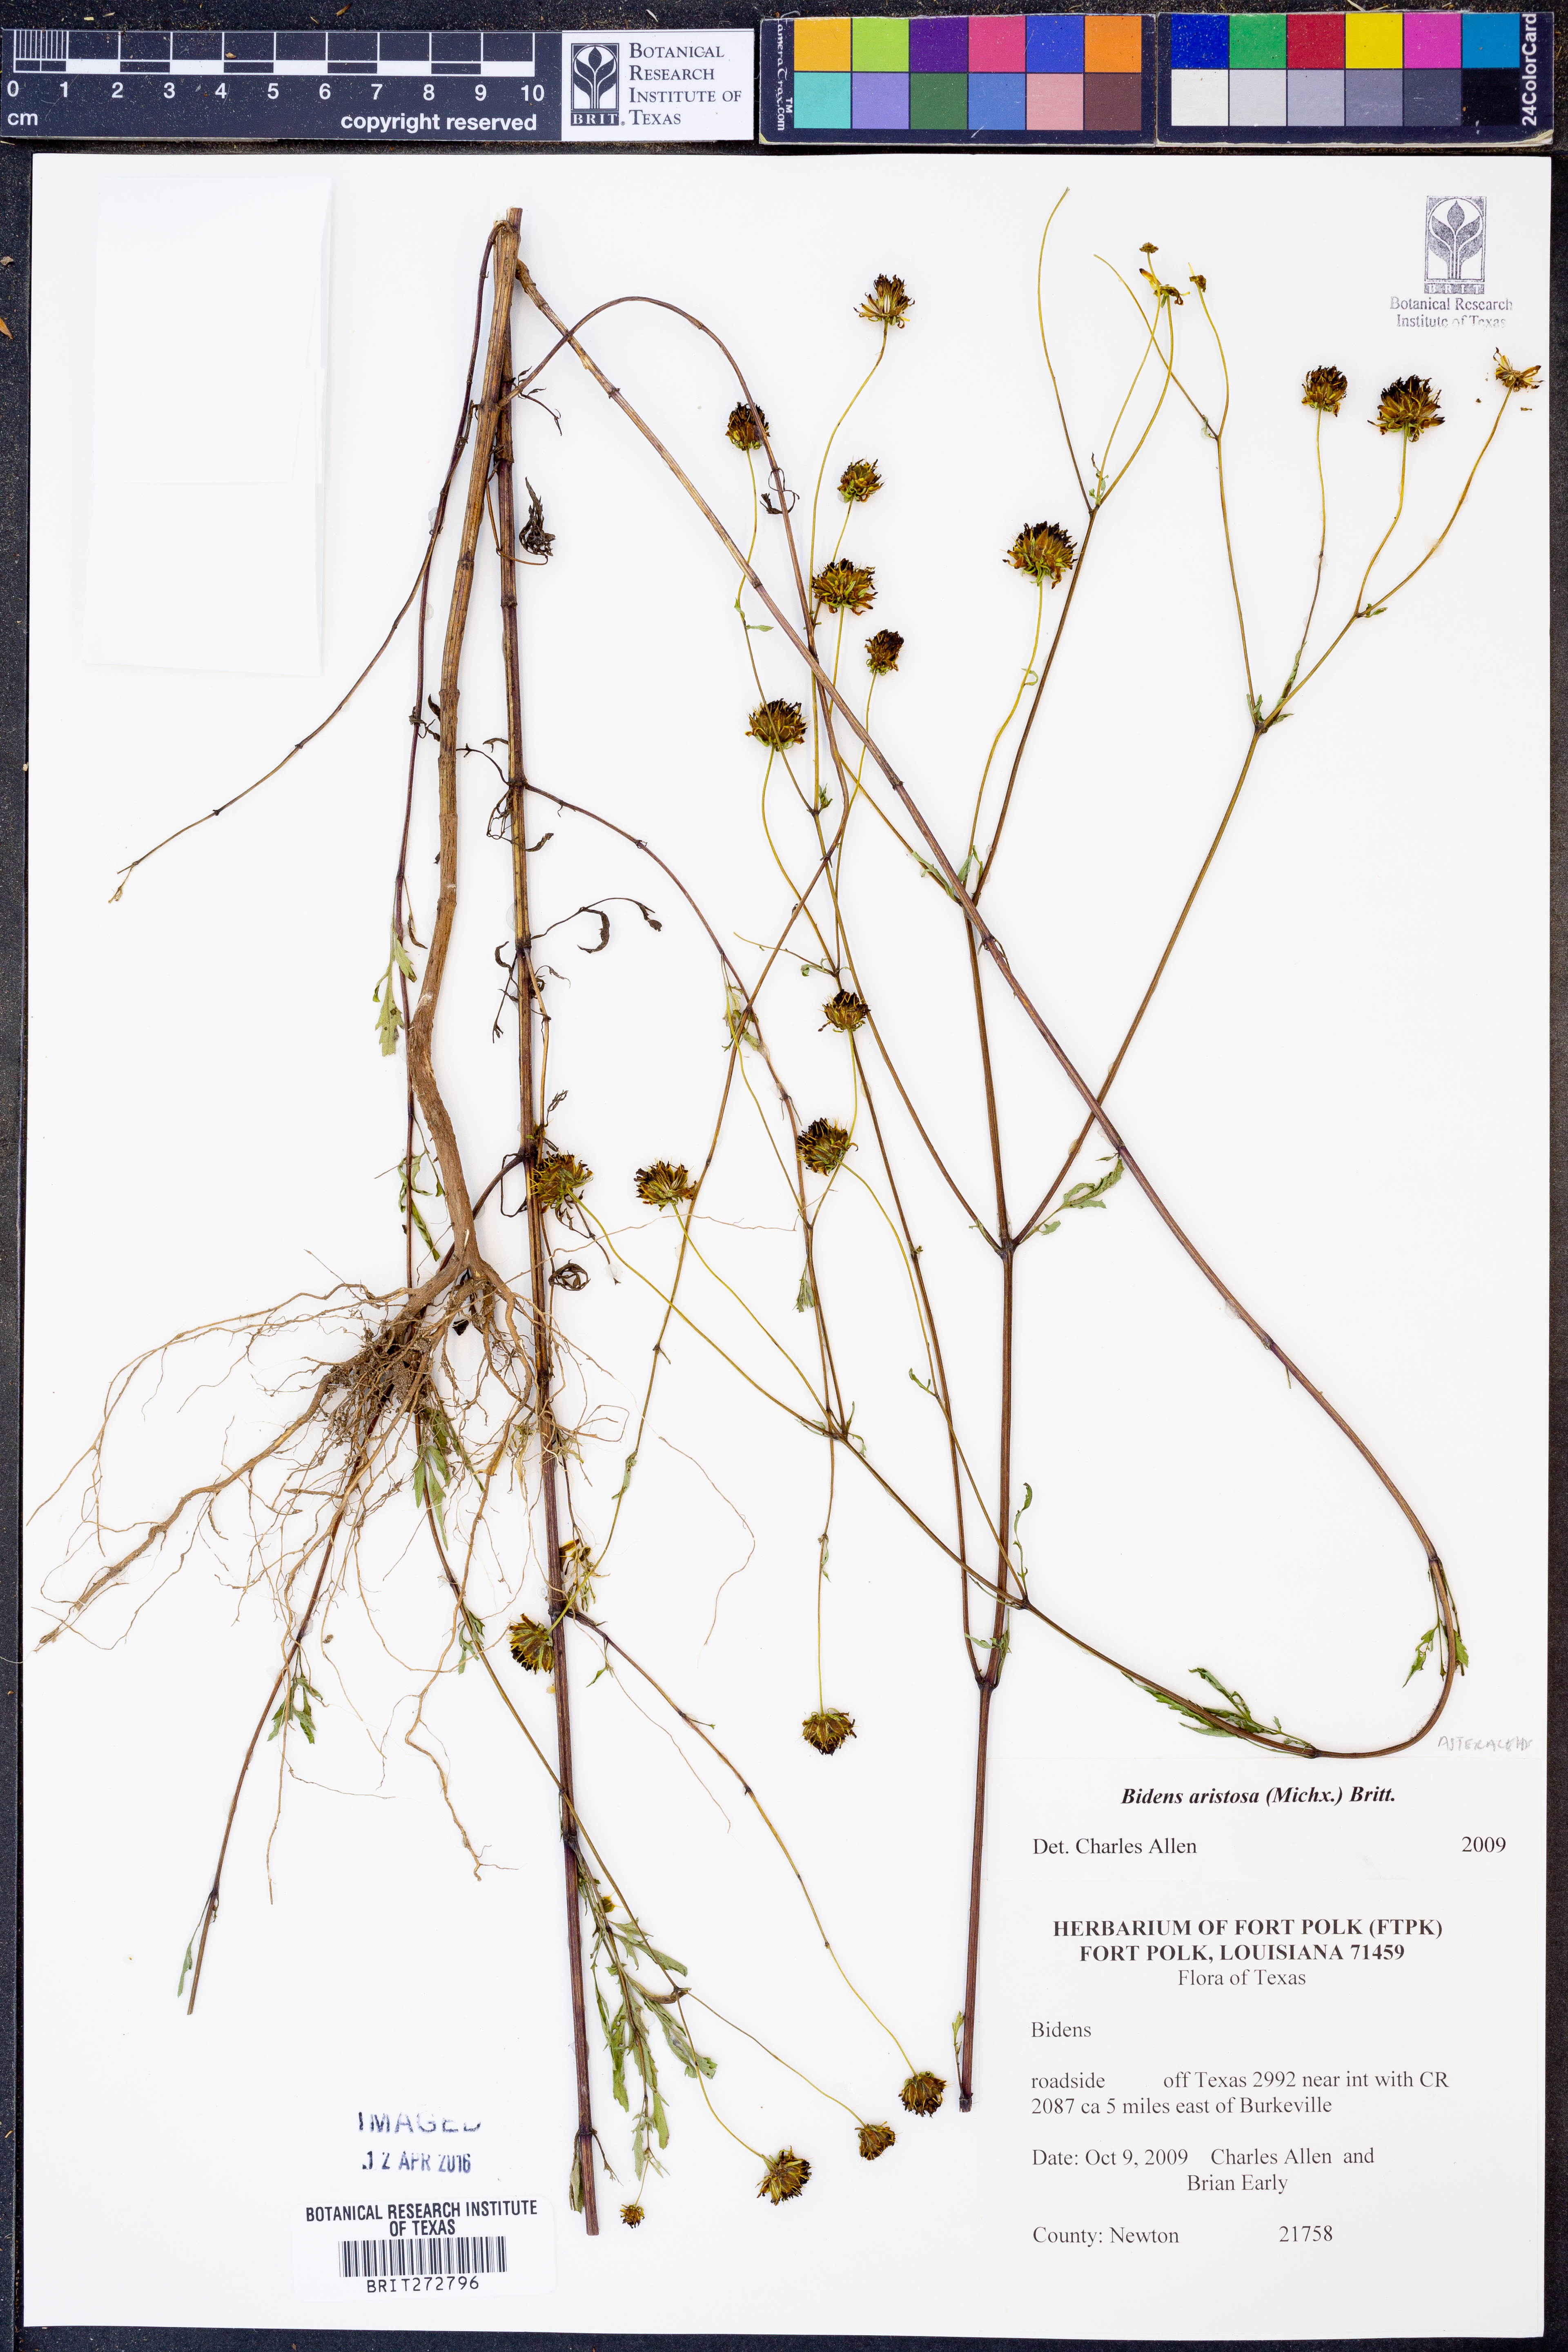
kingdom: Plantae
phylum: Tracheophyta
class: Magnoliopsida
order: Asterales
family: Asteraceae
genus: Bidens
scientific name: Bidens aristosa
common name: Western tickseed
